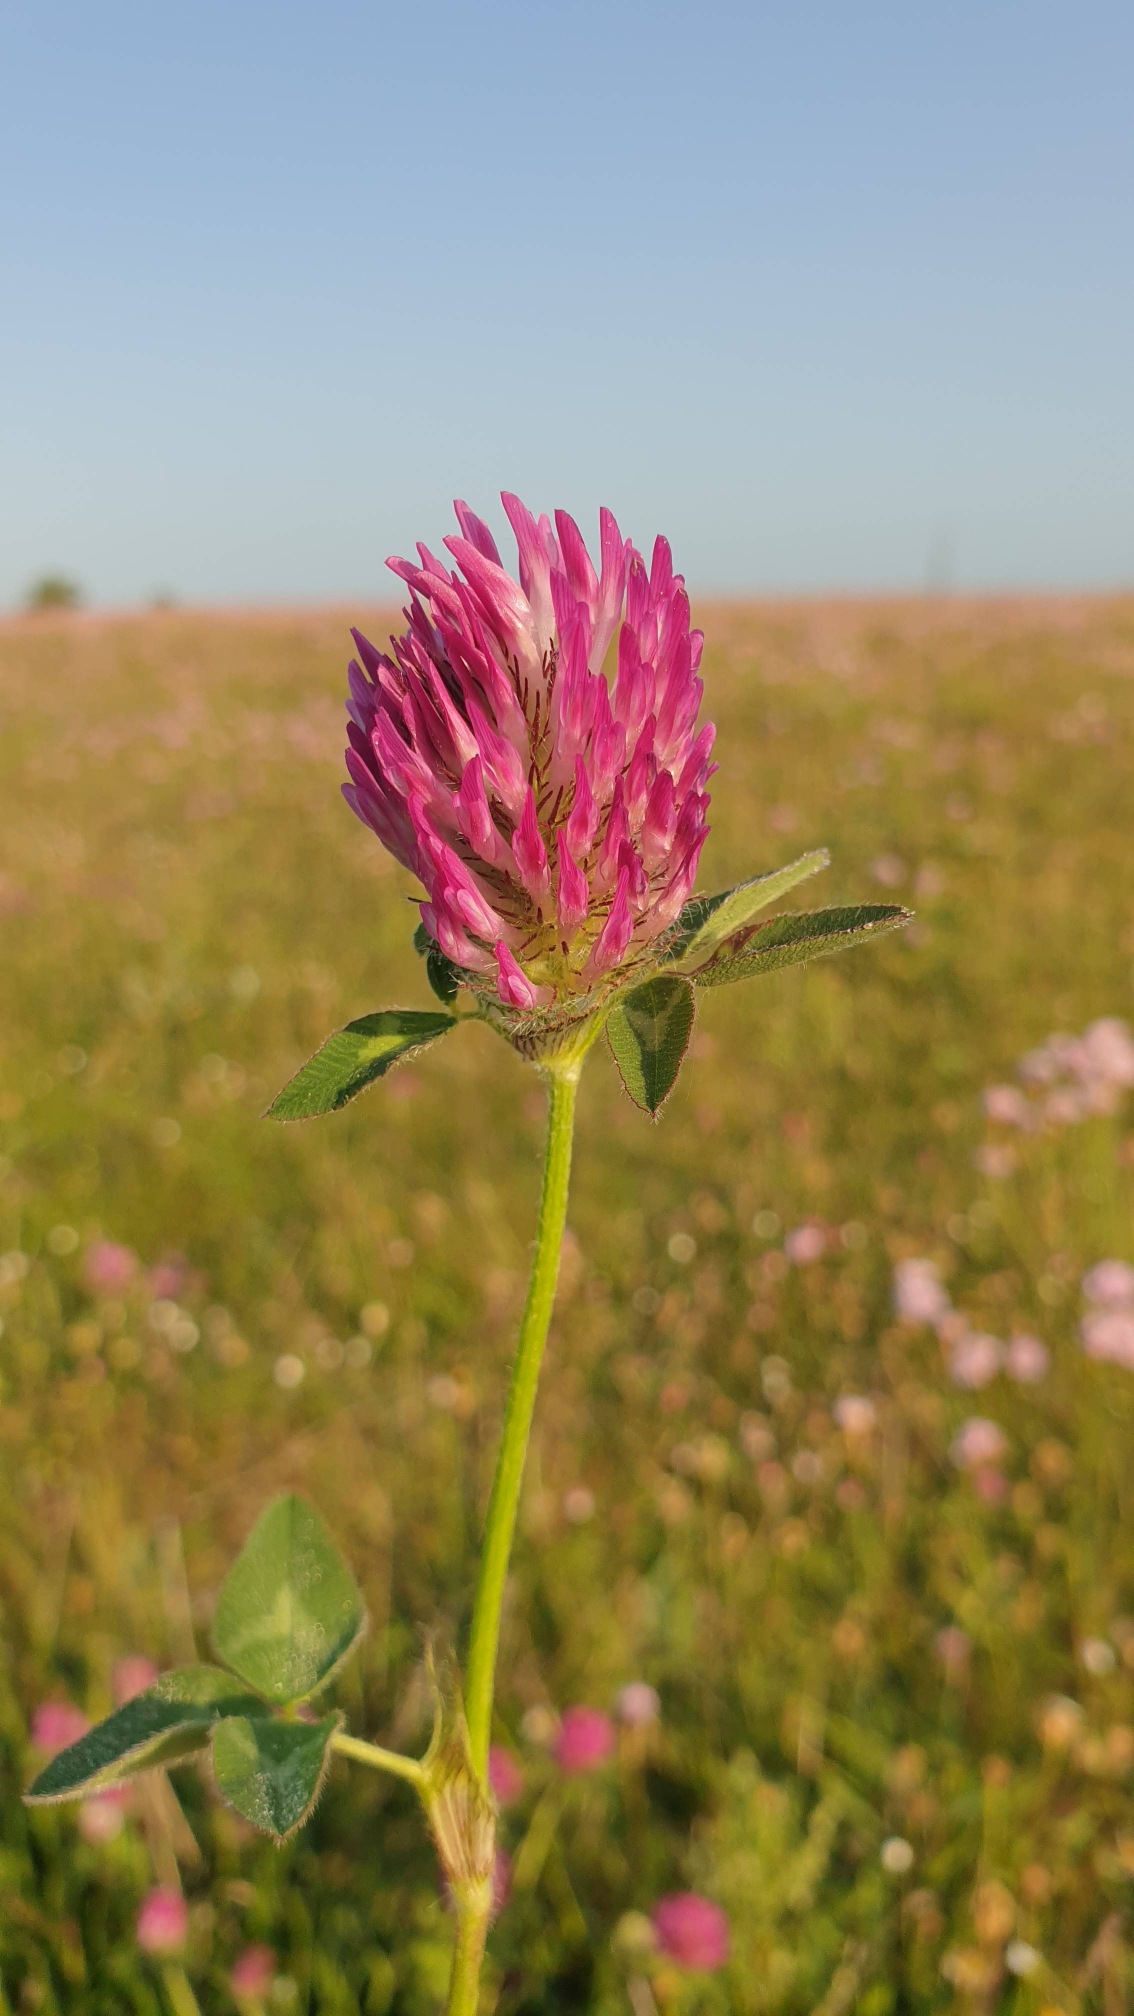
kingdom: Plantae
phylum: Tracheophyta
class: Magnoliopsida
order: Fabales
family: Fabaceae
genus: Trifolium
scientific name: Trifolium pratense
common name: Rød-kløver
